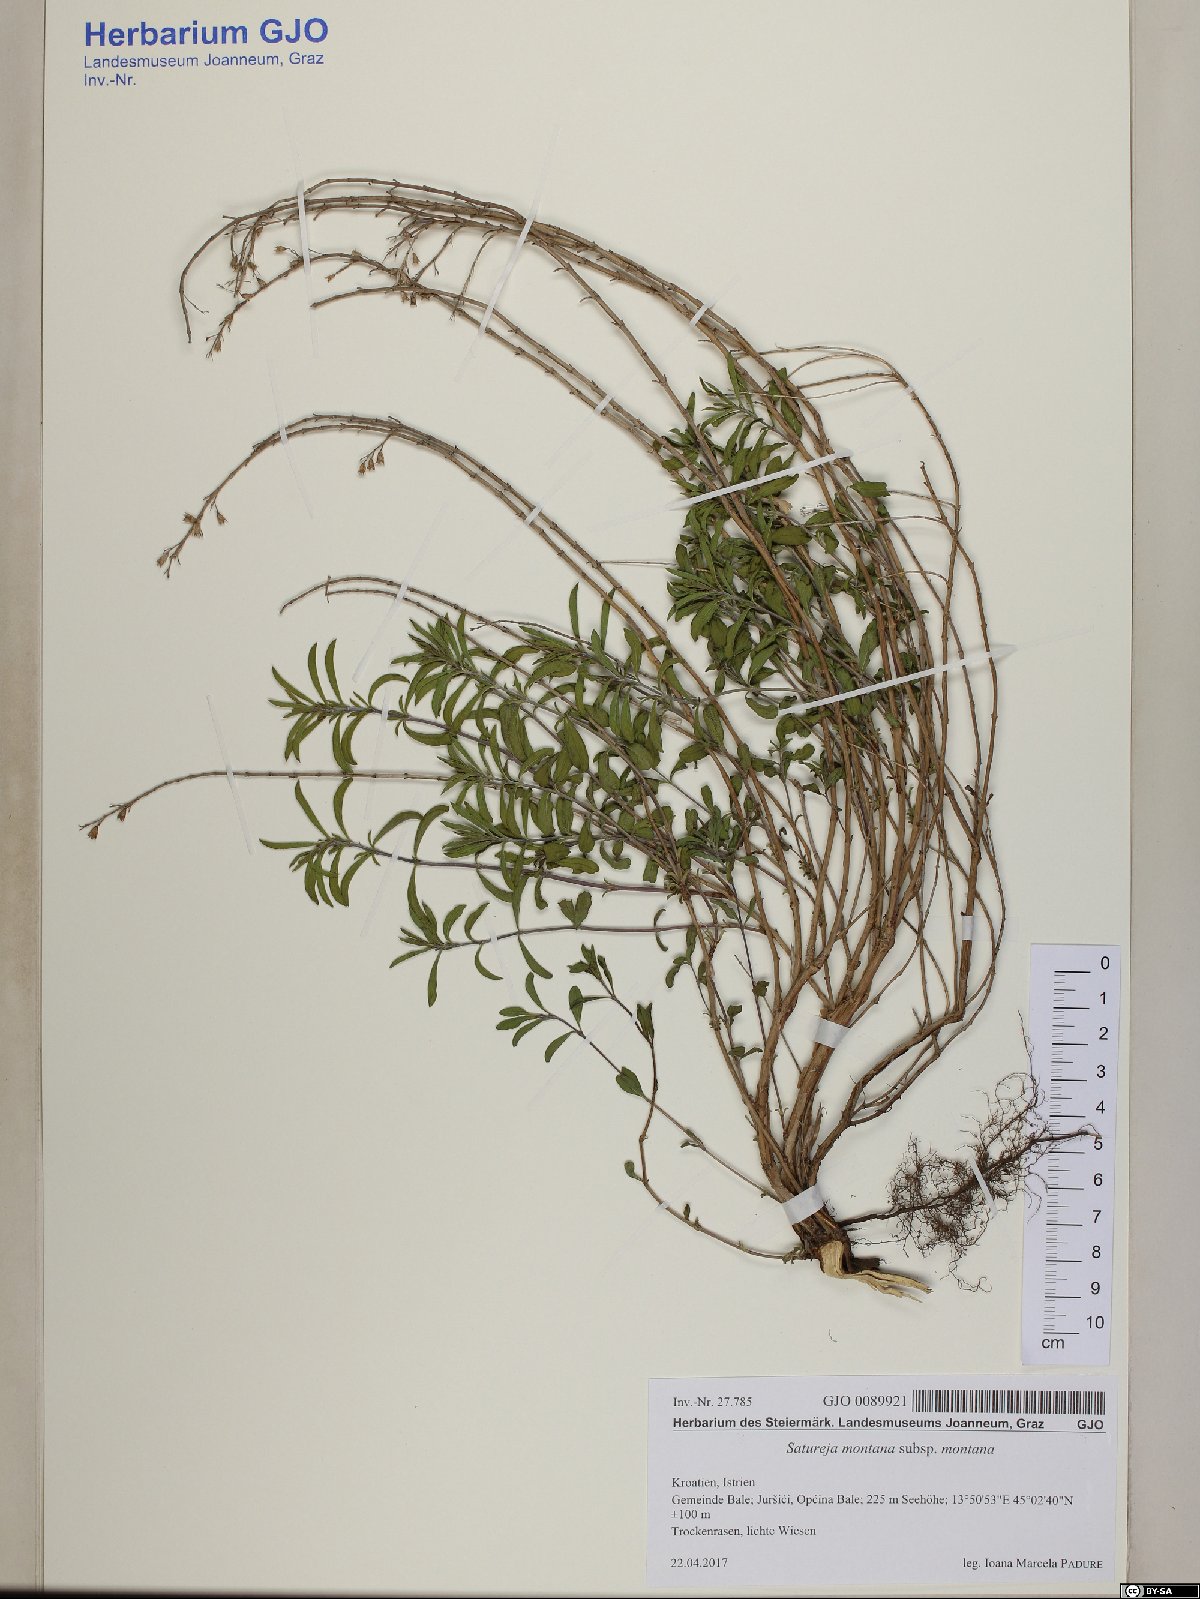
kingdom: Plantae
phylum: Tracheophyta
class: Magnoliopsida
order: Lamiales
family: Lamiaceae
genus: Satureja
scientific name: Satureja montana
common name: Winter savory
